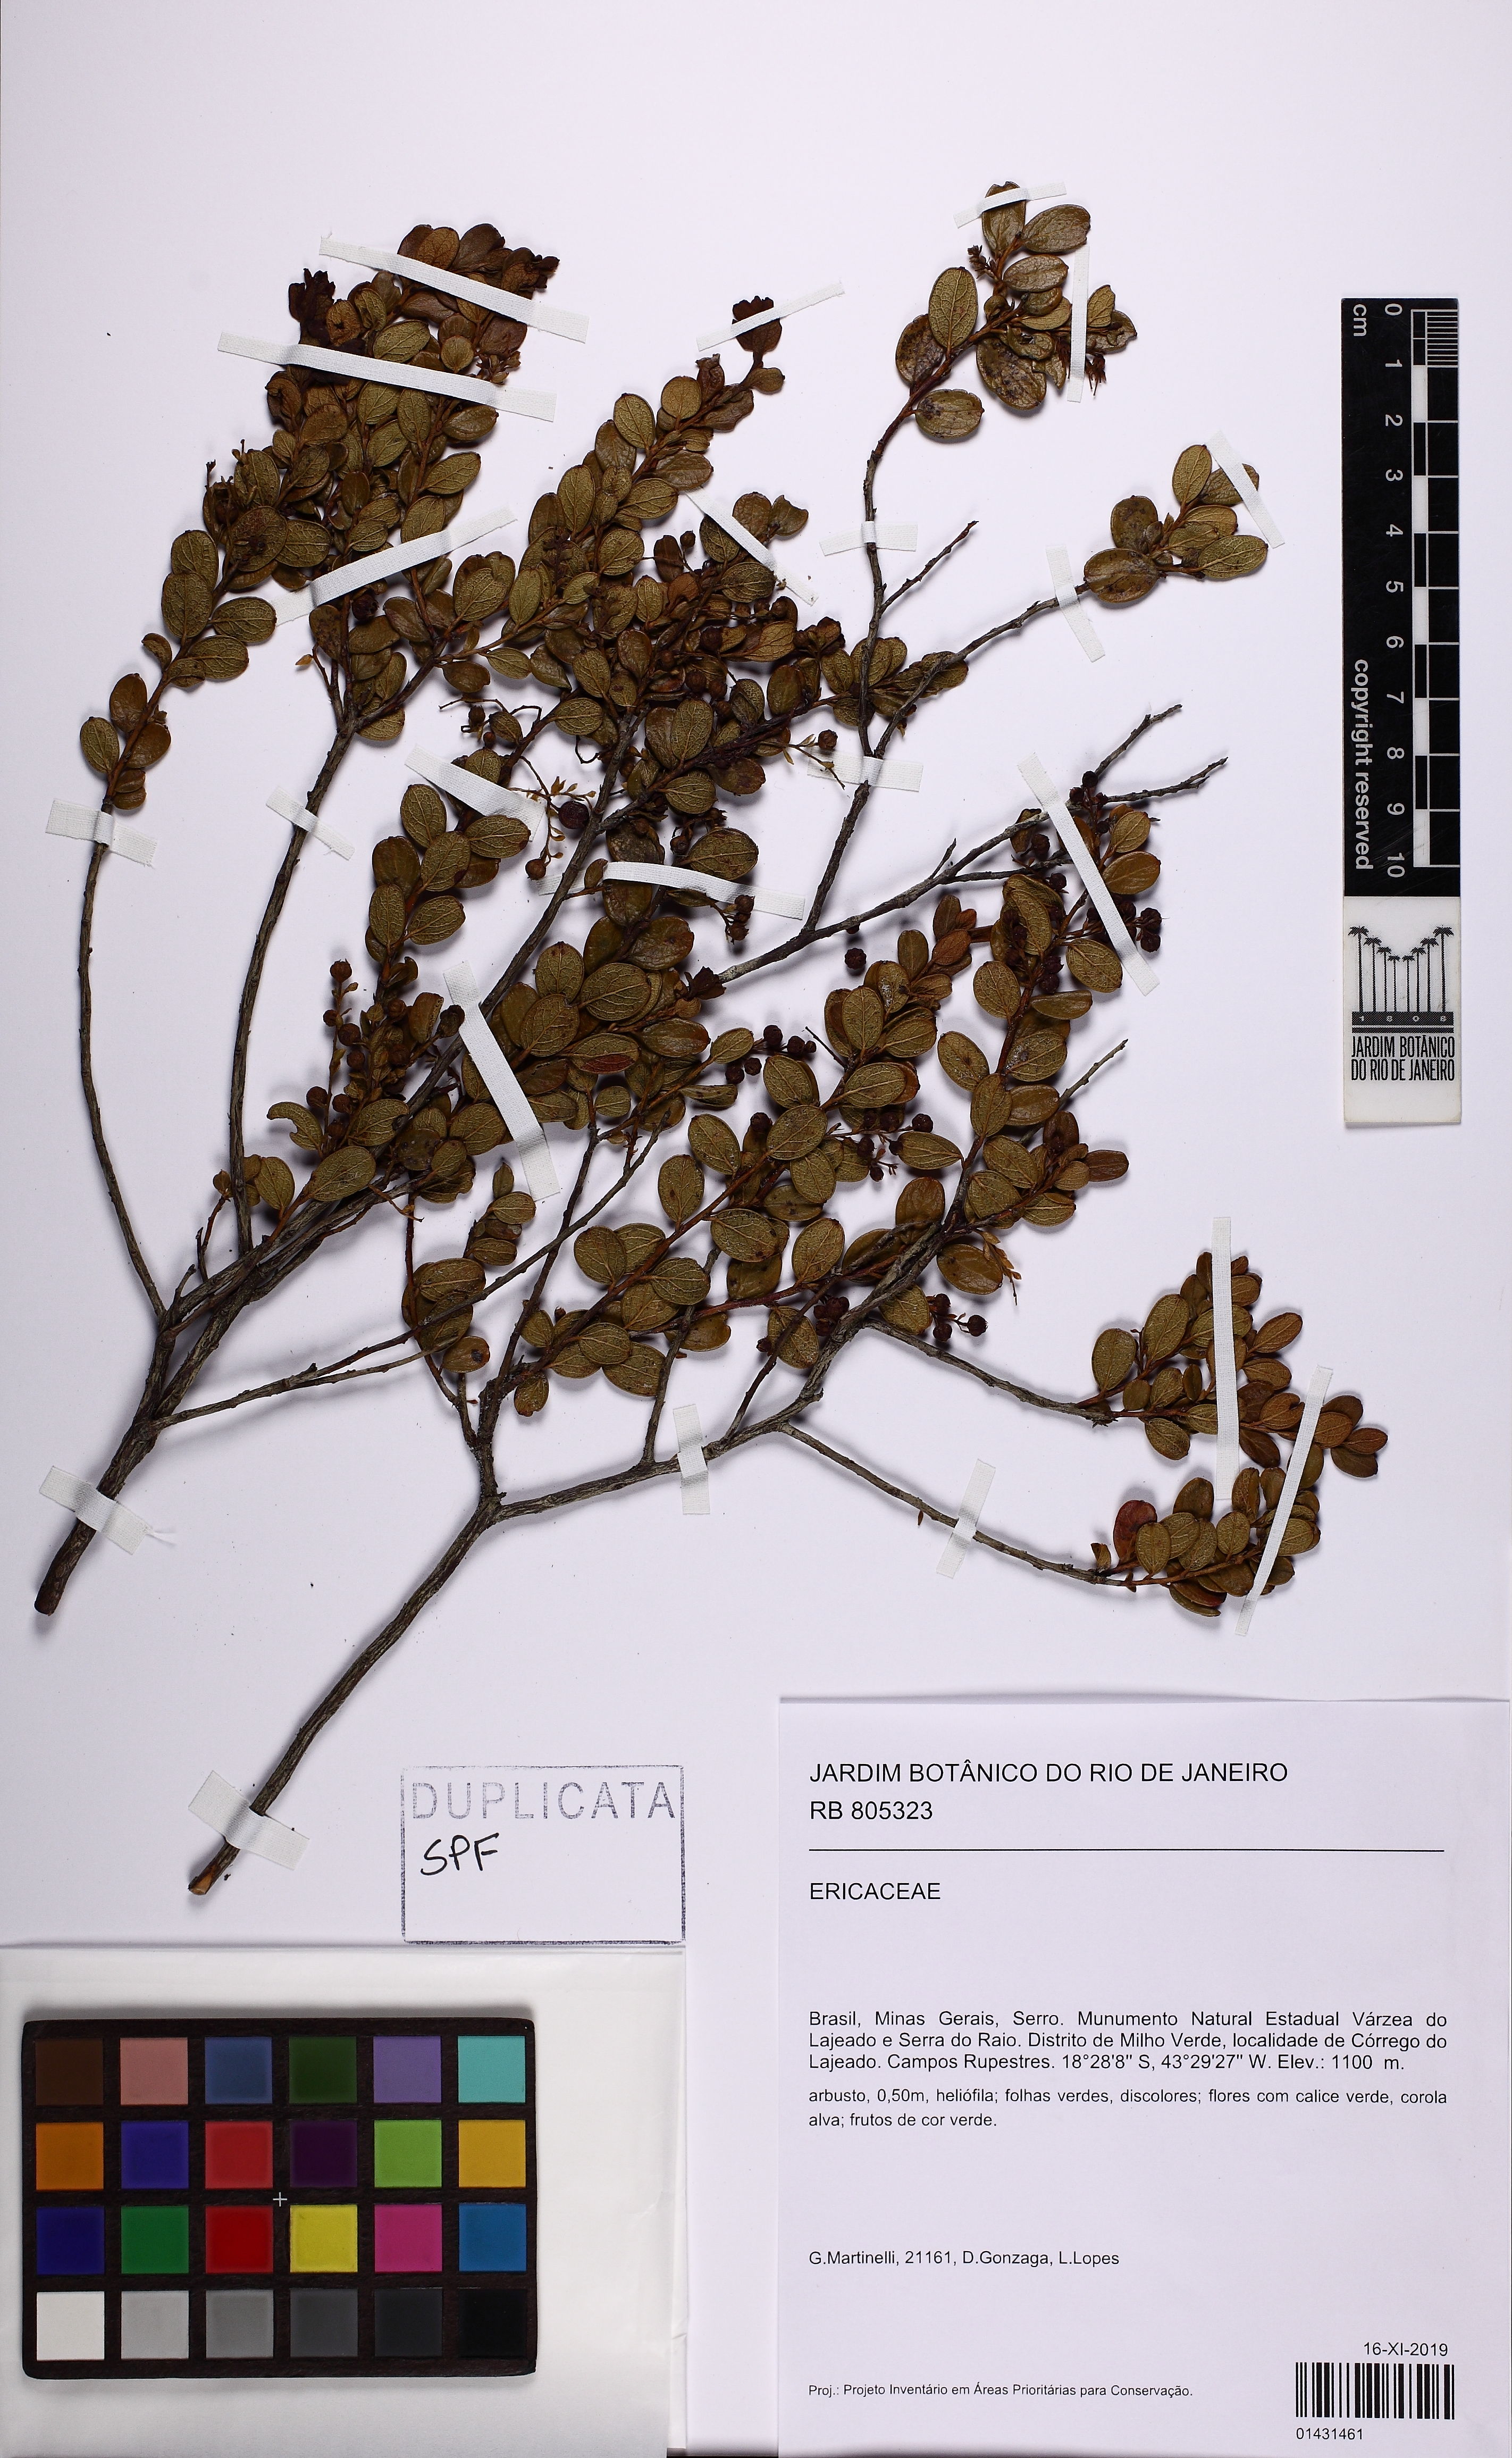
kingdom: Plantae
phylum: Tracheophyta
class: Magnoliopsida
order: Ericales
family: Ericaceae
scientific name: Ericaceae
